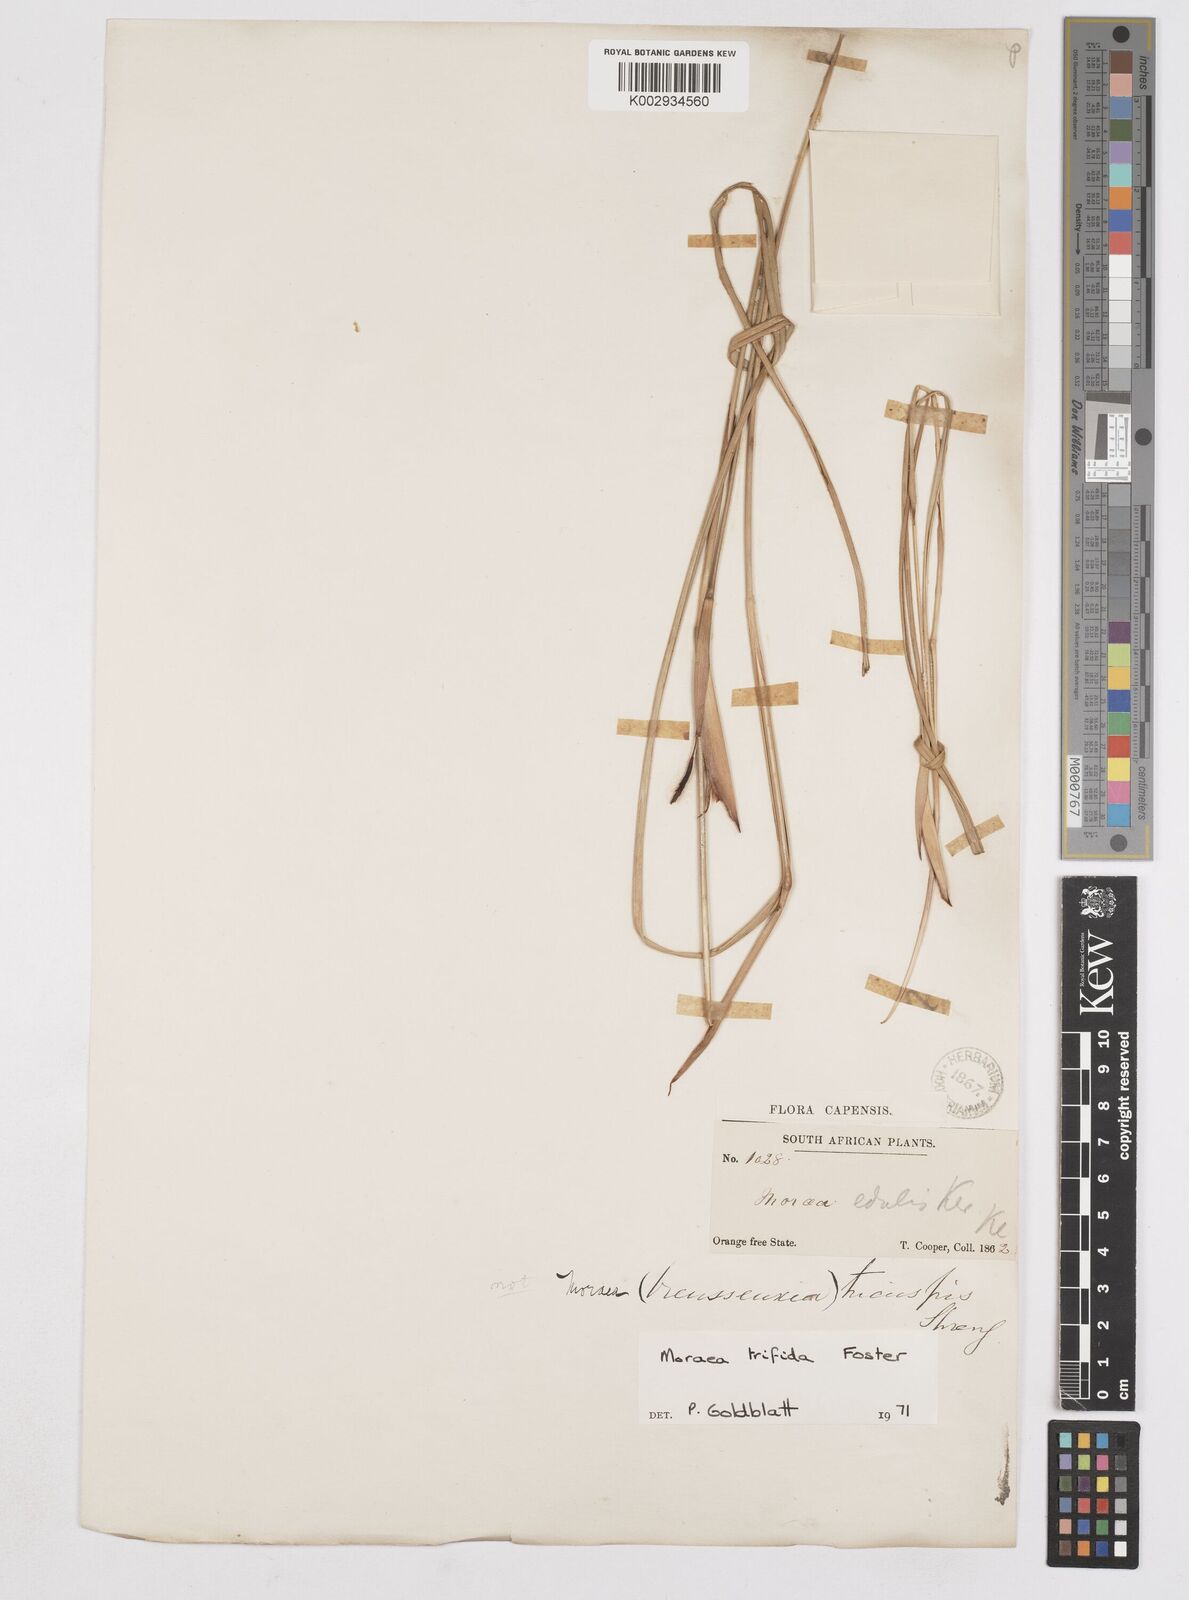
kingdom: Plantae
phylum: Tracheophyta
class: Liliopsida
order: Asparagales
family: Iridaceae
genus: Moraea
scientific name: Moraea trifida
